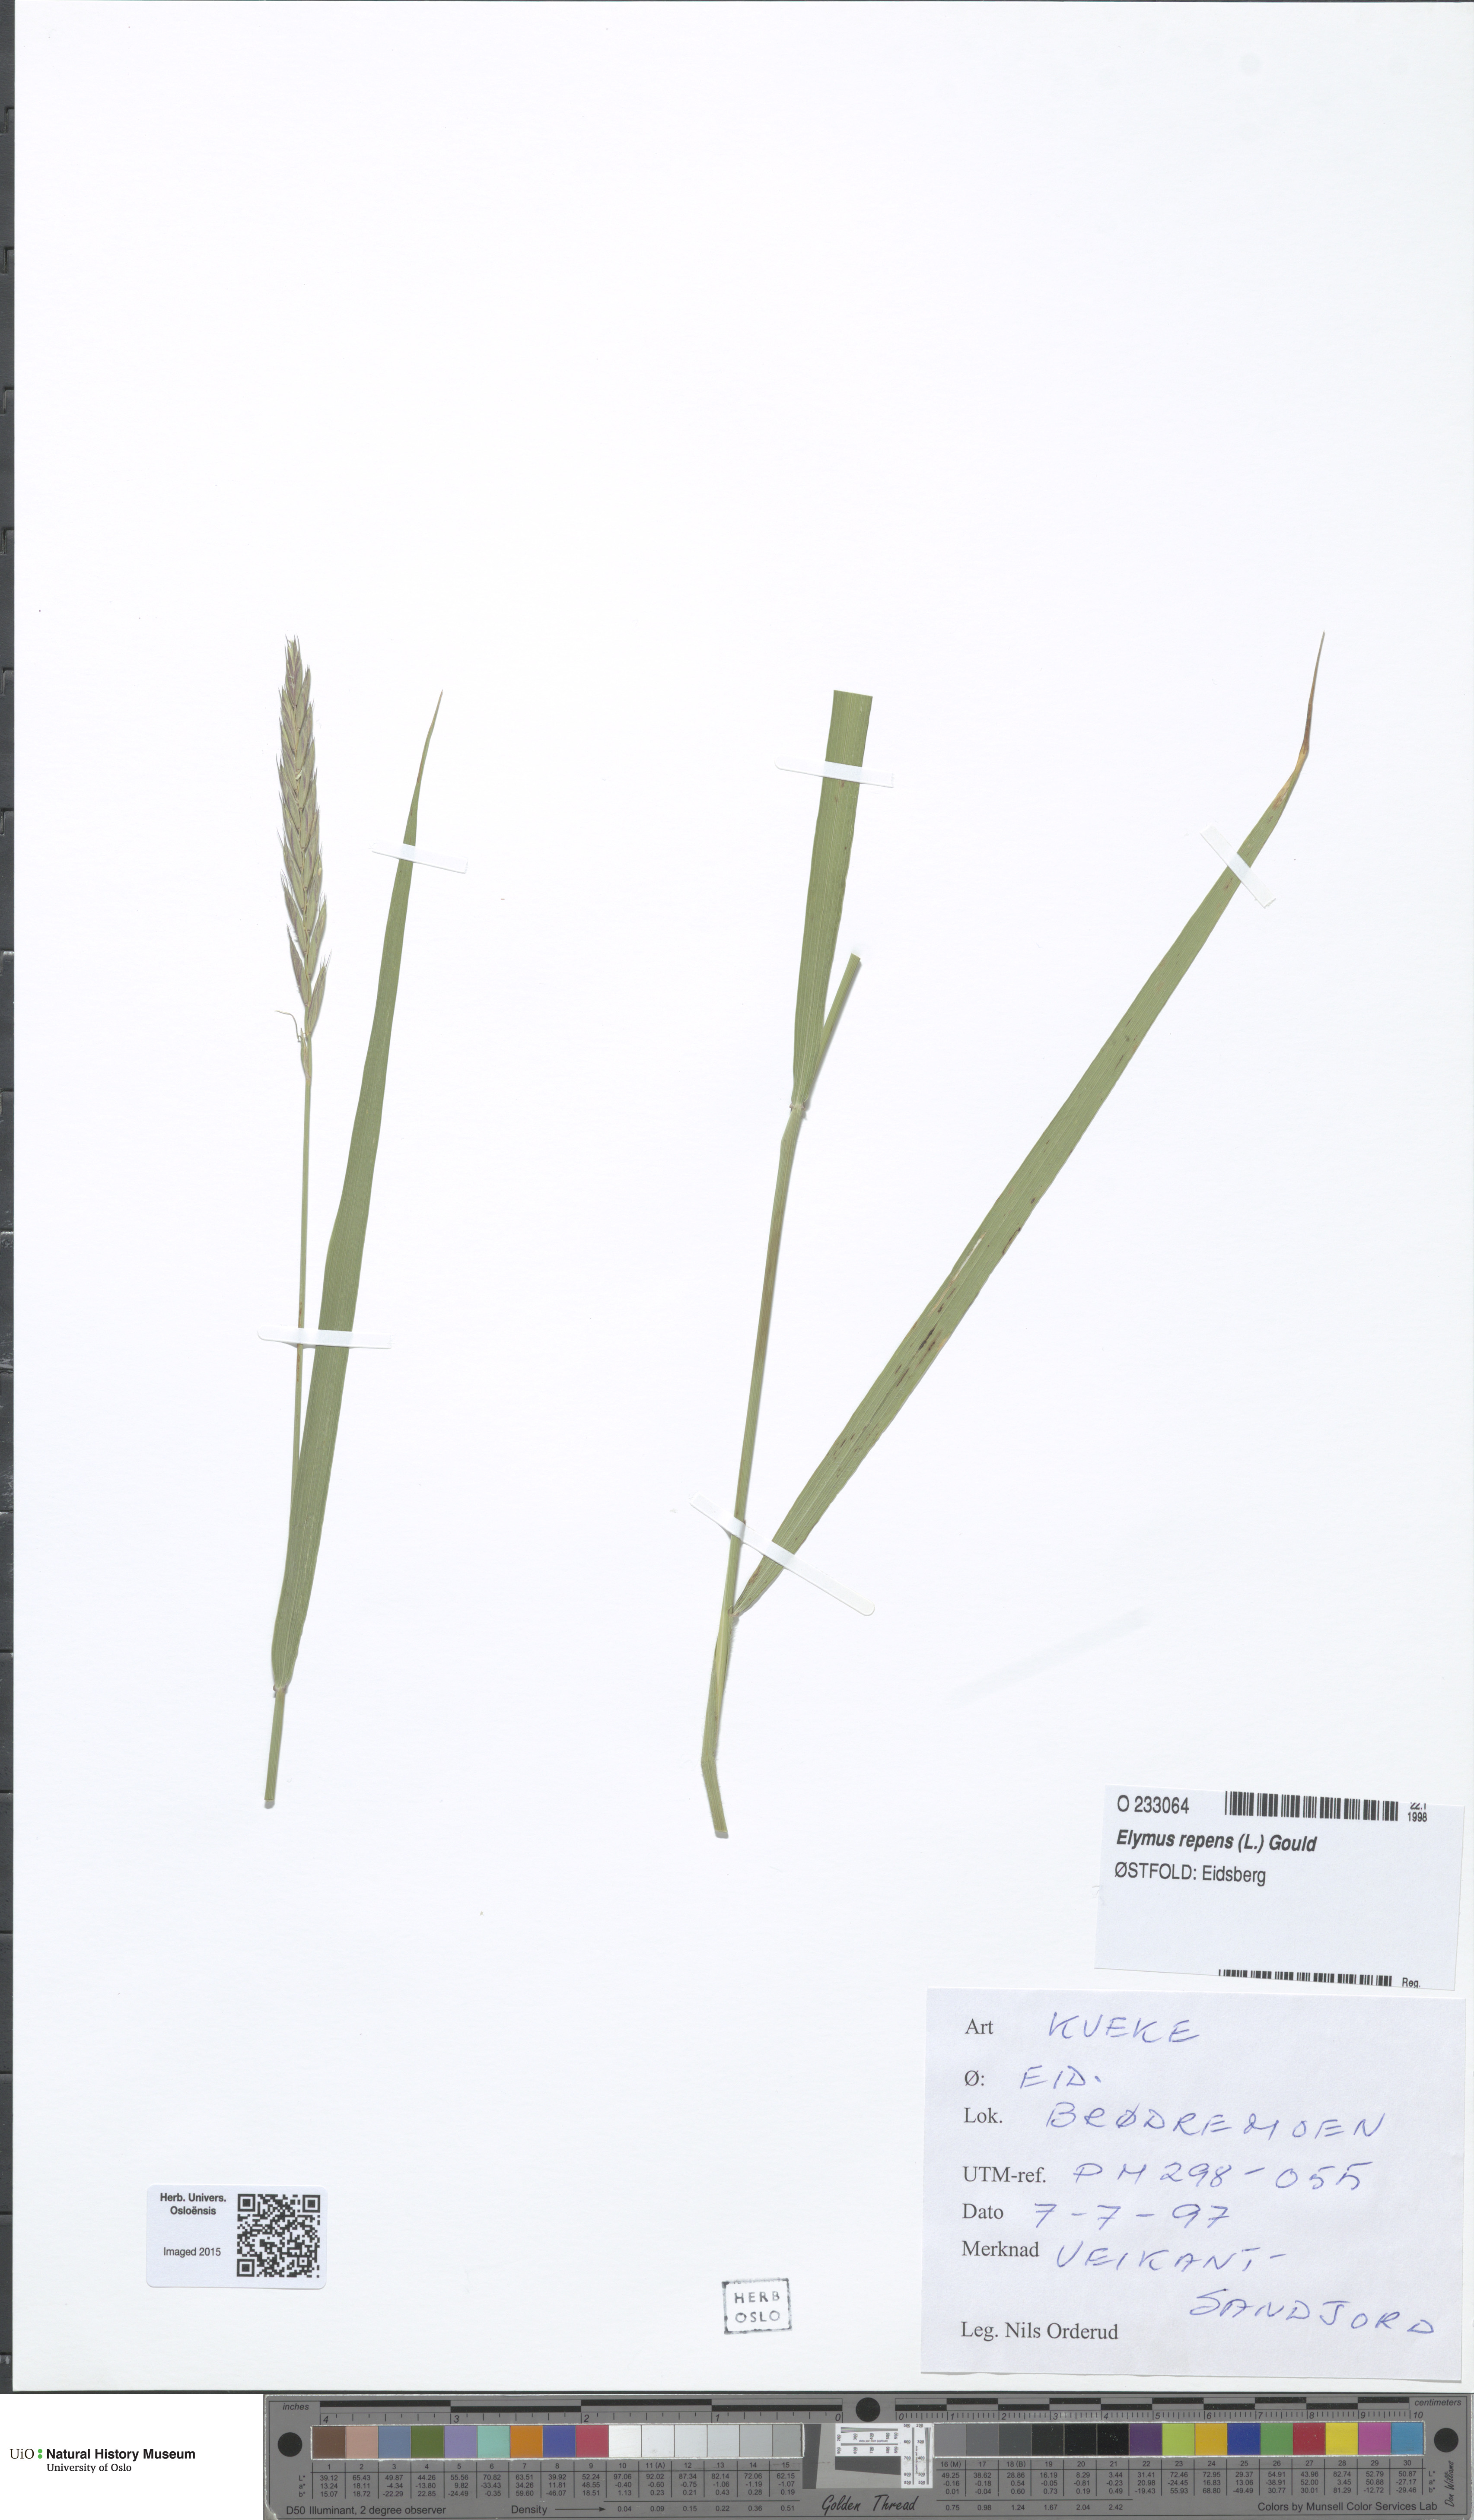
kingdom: Plantae
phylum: Tracheophyta
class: Liliopsida
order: Poales
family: Poaceae
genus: Elymus
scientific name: Elymus repens
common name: Quackgrass
